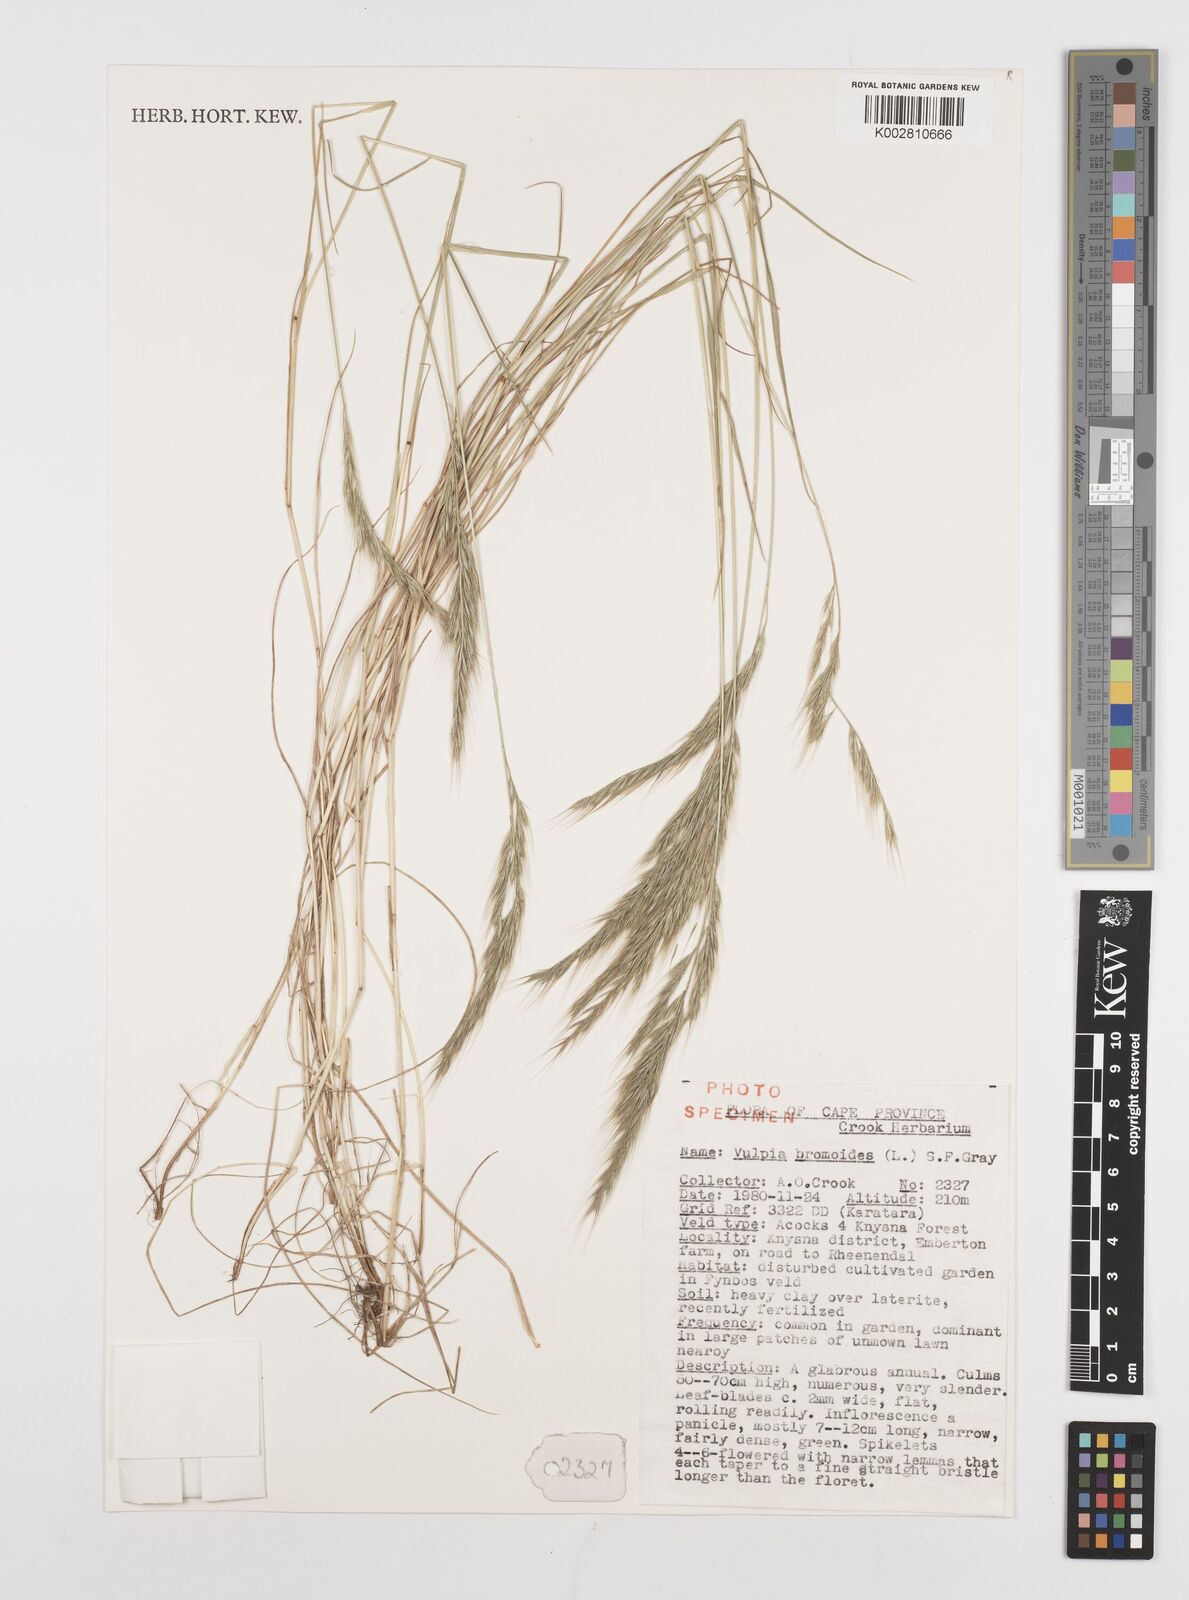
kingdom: Plantae
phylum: Tracheophyta
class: Liliopsida
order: Poales
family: Poaceae
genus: Festuca
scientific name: Festuca bromoides
